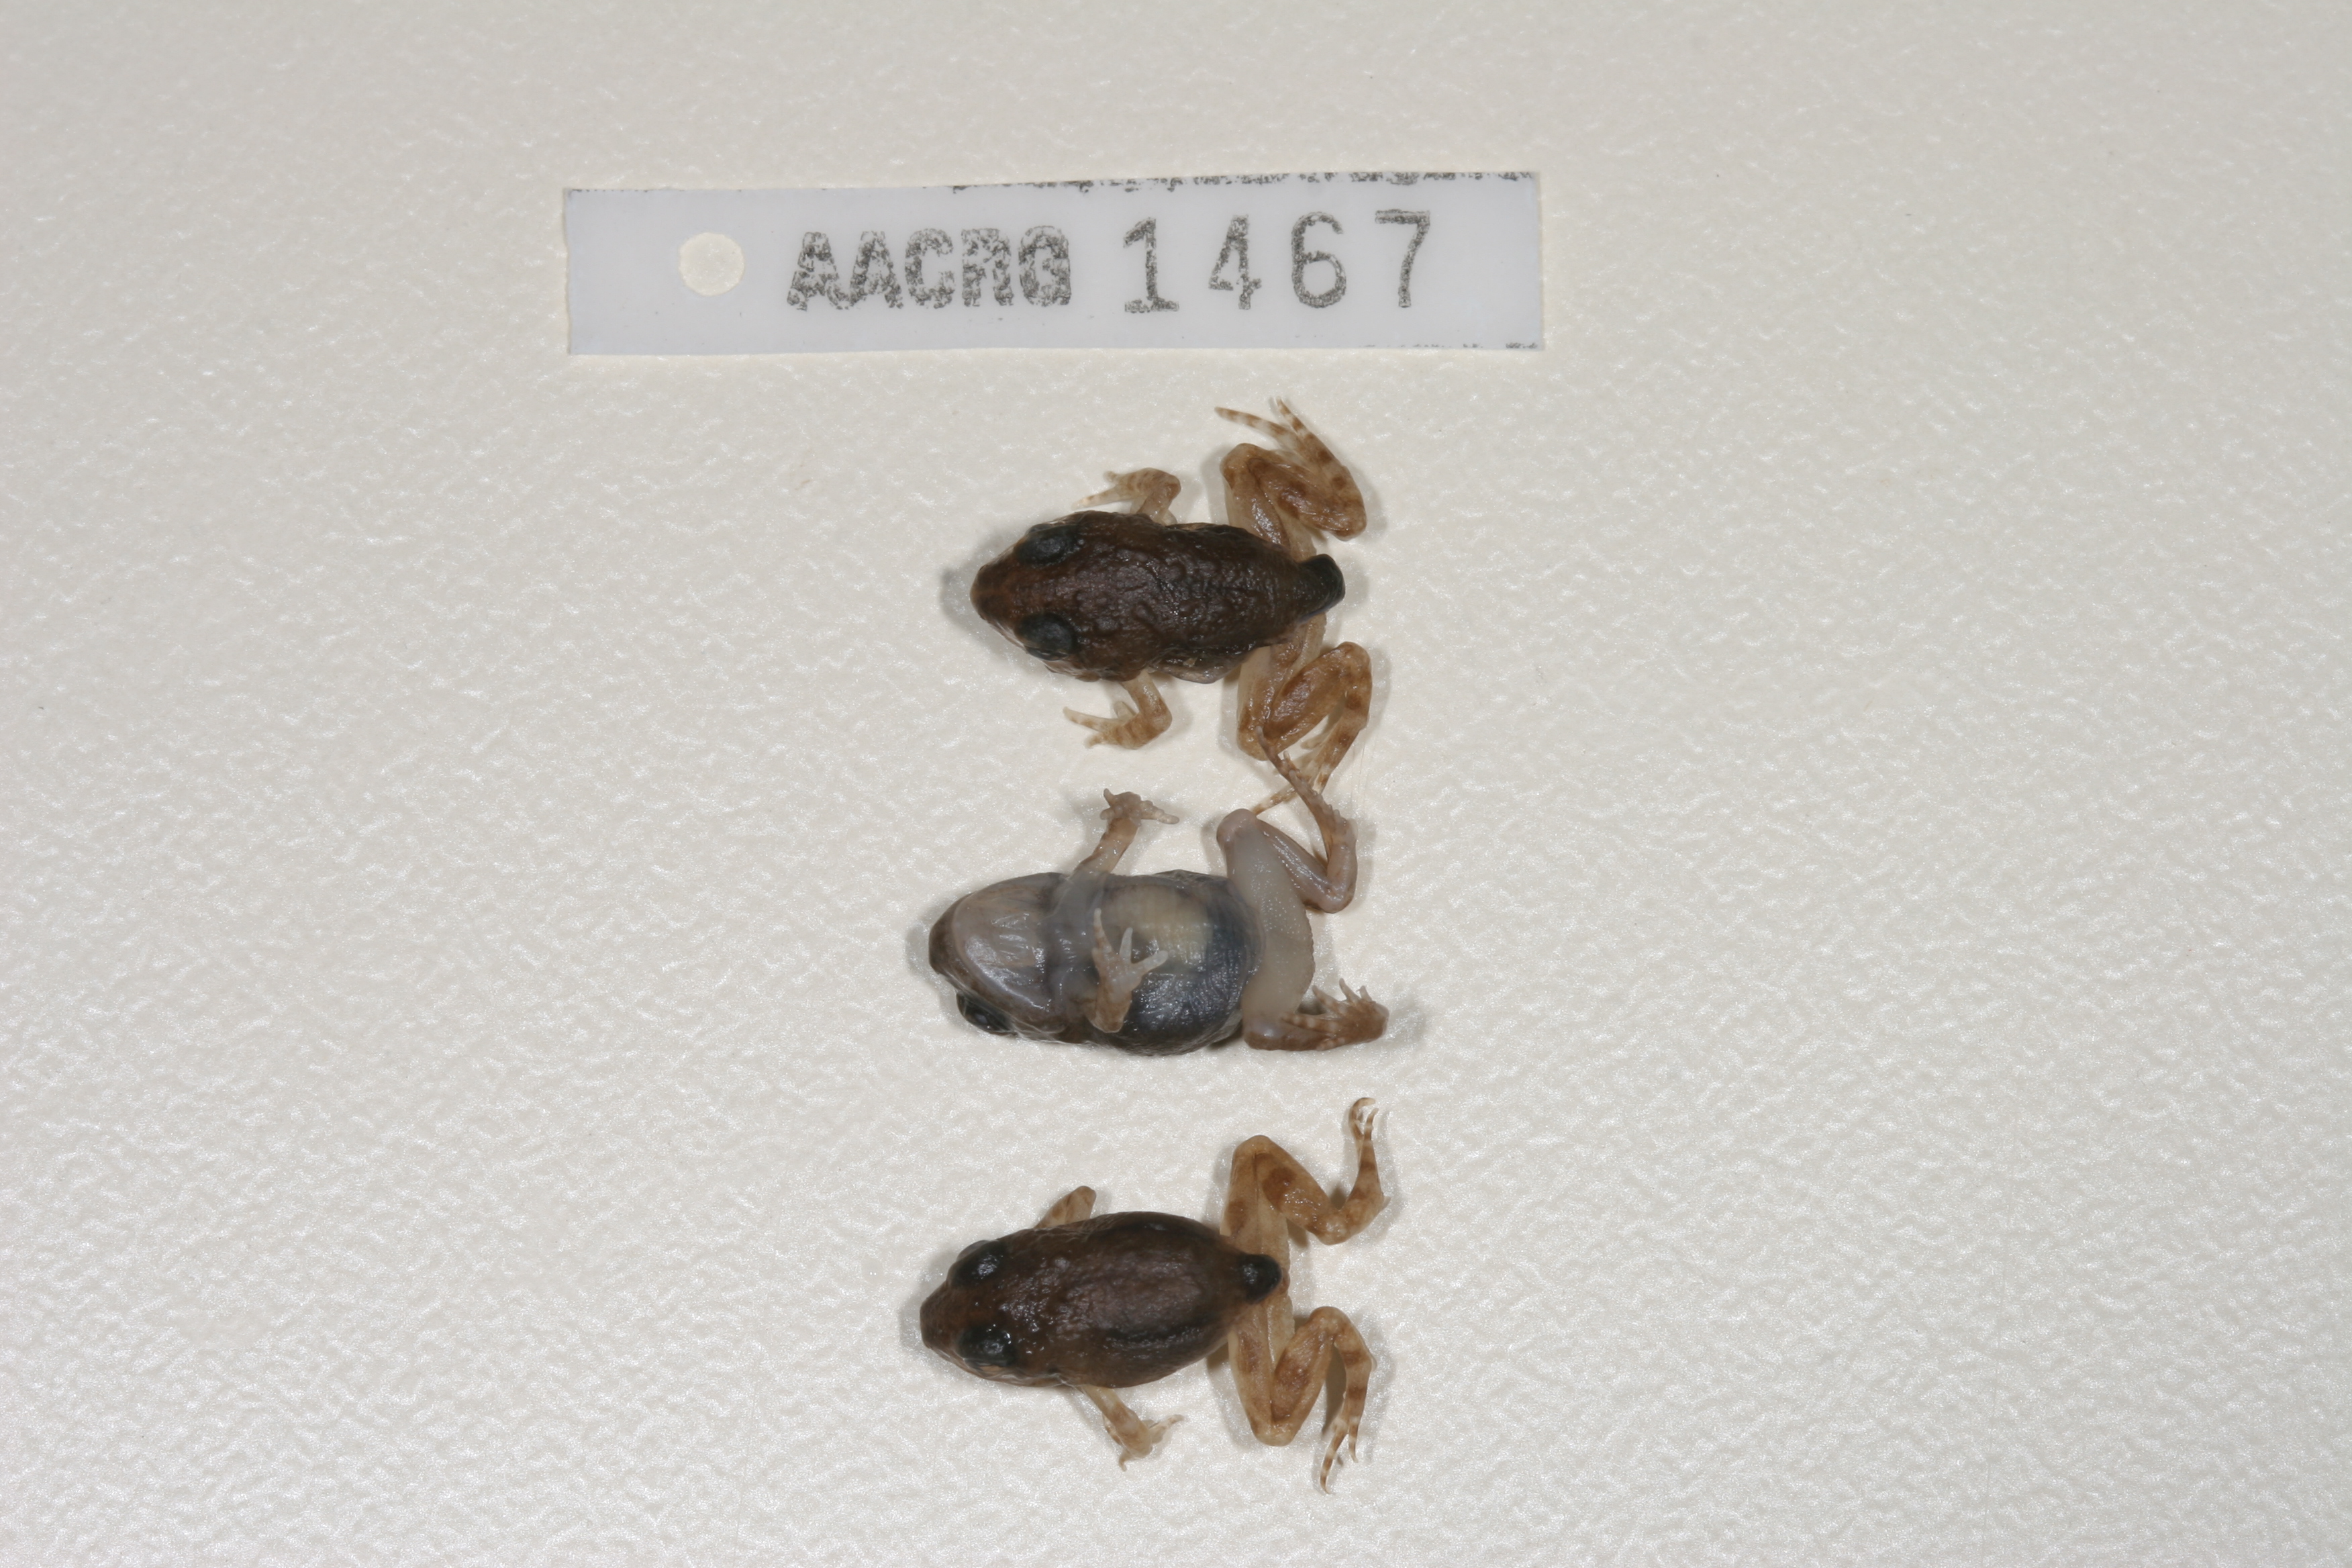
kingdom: Animalia
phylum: Chordata
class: Amphibia
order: Anura
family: Pyxicephalidae
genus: Tomopterna
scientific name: Tomopterna cryptotis
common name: Catequero bullfrog
